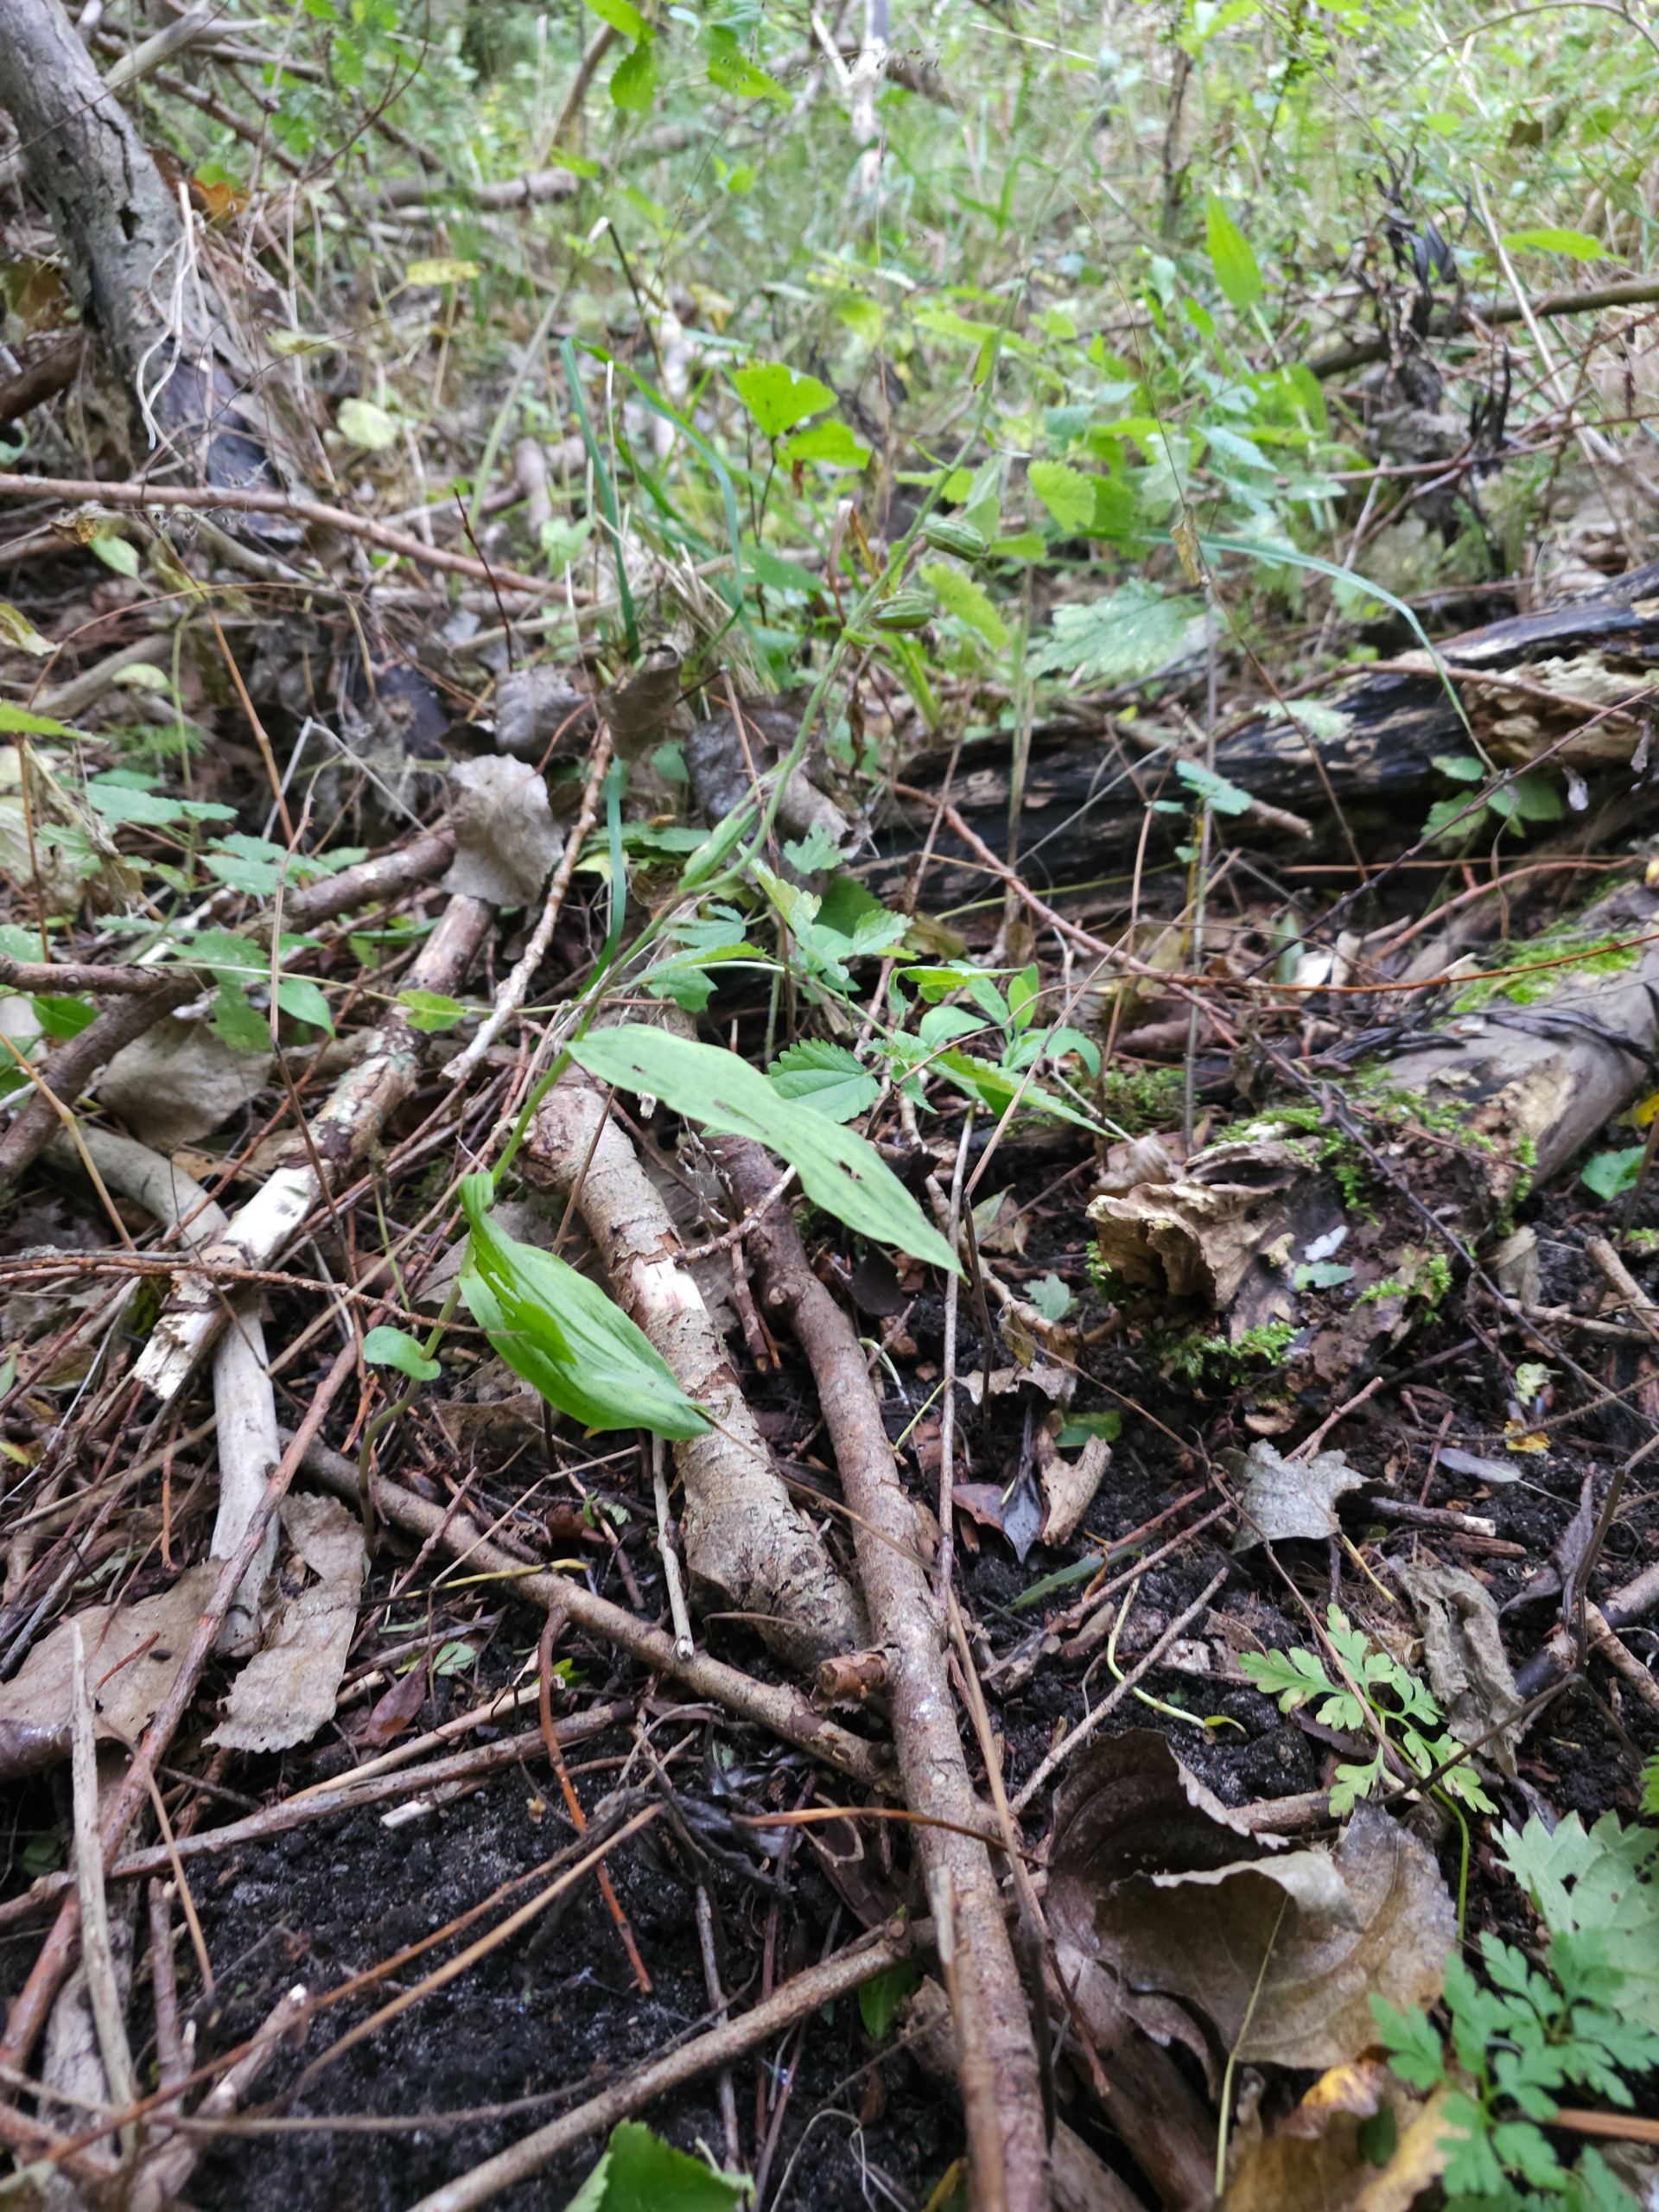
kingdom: Plantae
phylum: Tracheophyta
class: Liliopsida
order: Asparagales
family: Orchidaceae
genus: Epipactis
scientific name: Epipactis phyllanthes
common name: Nikkende hullæbe
